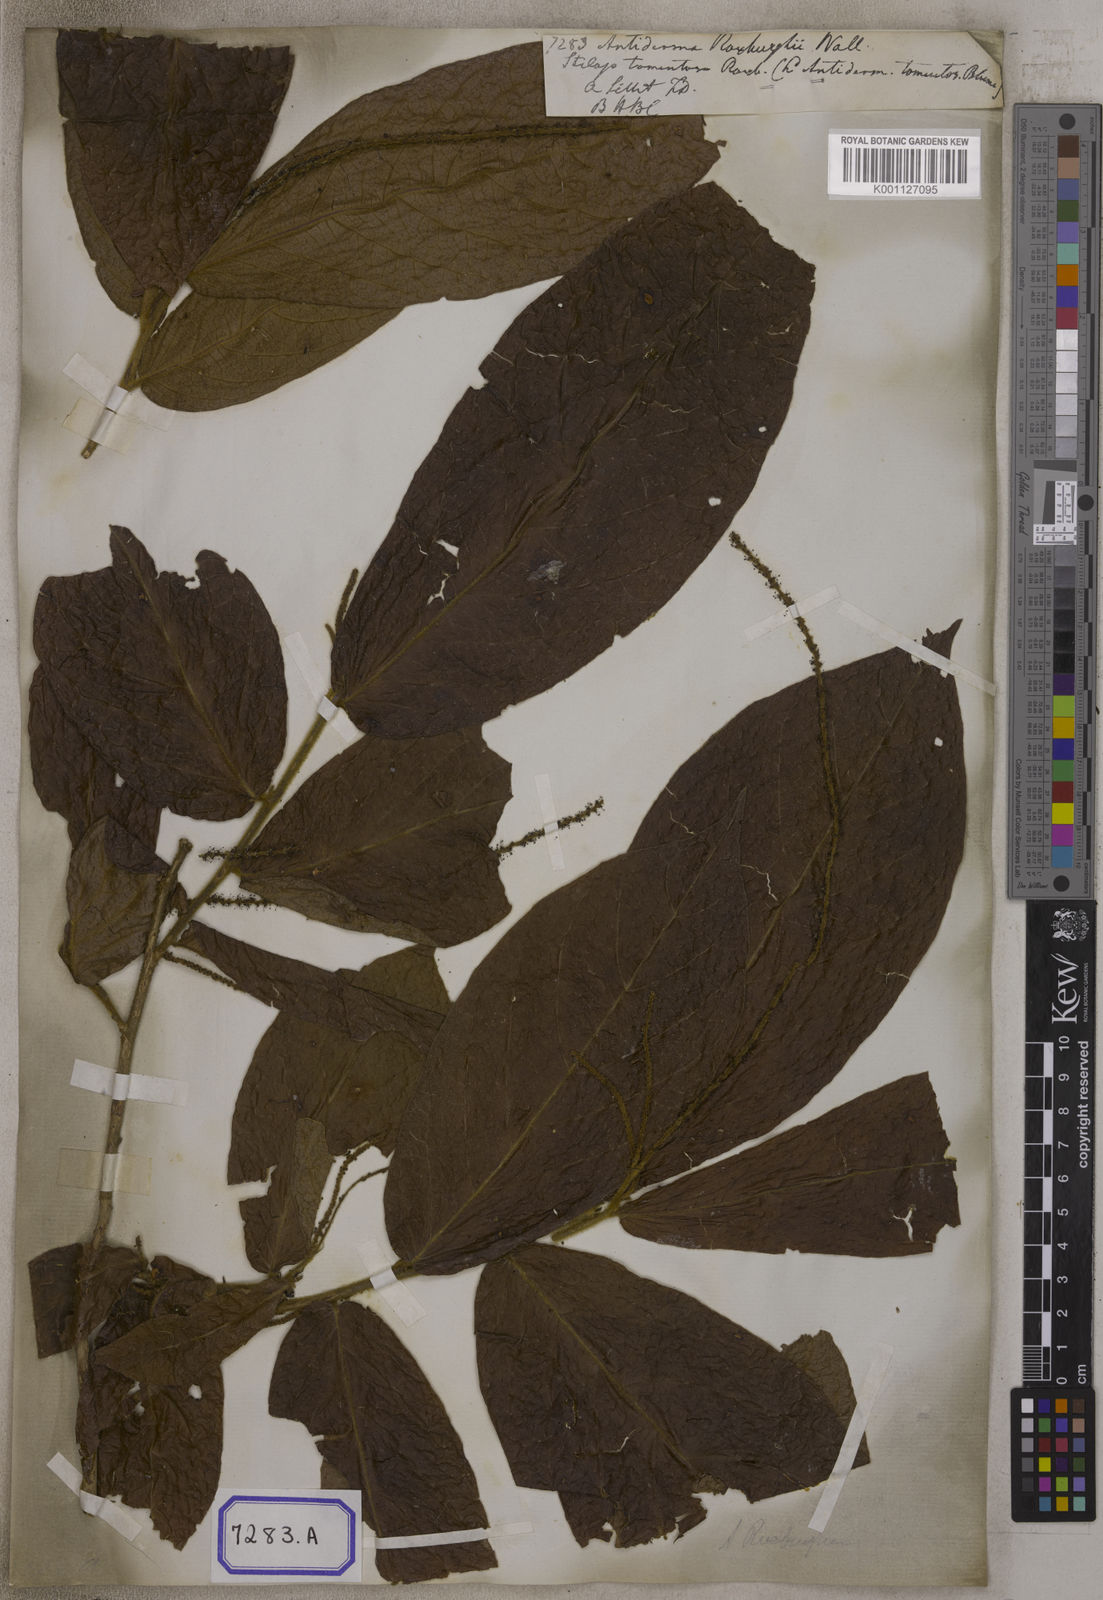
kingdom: Plantae
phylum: Tracheophyta
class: Magnoliopsida
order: Malpighiales
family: Phyllanthaceae
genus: Antidesma
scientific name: Antidesma
